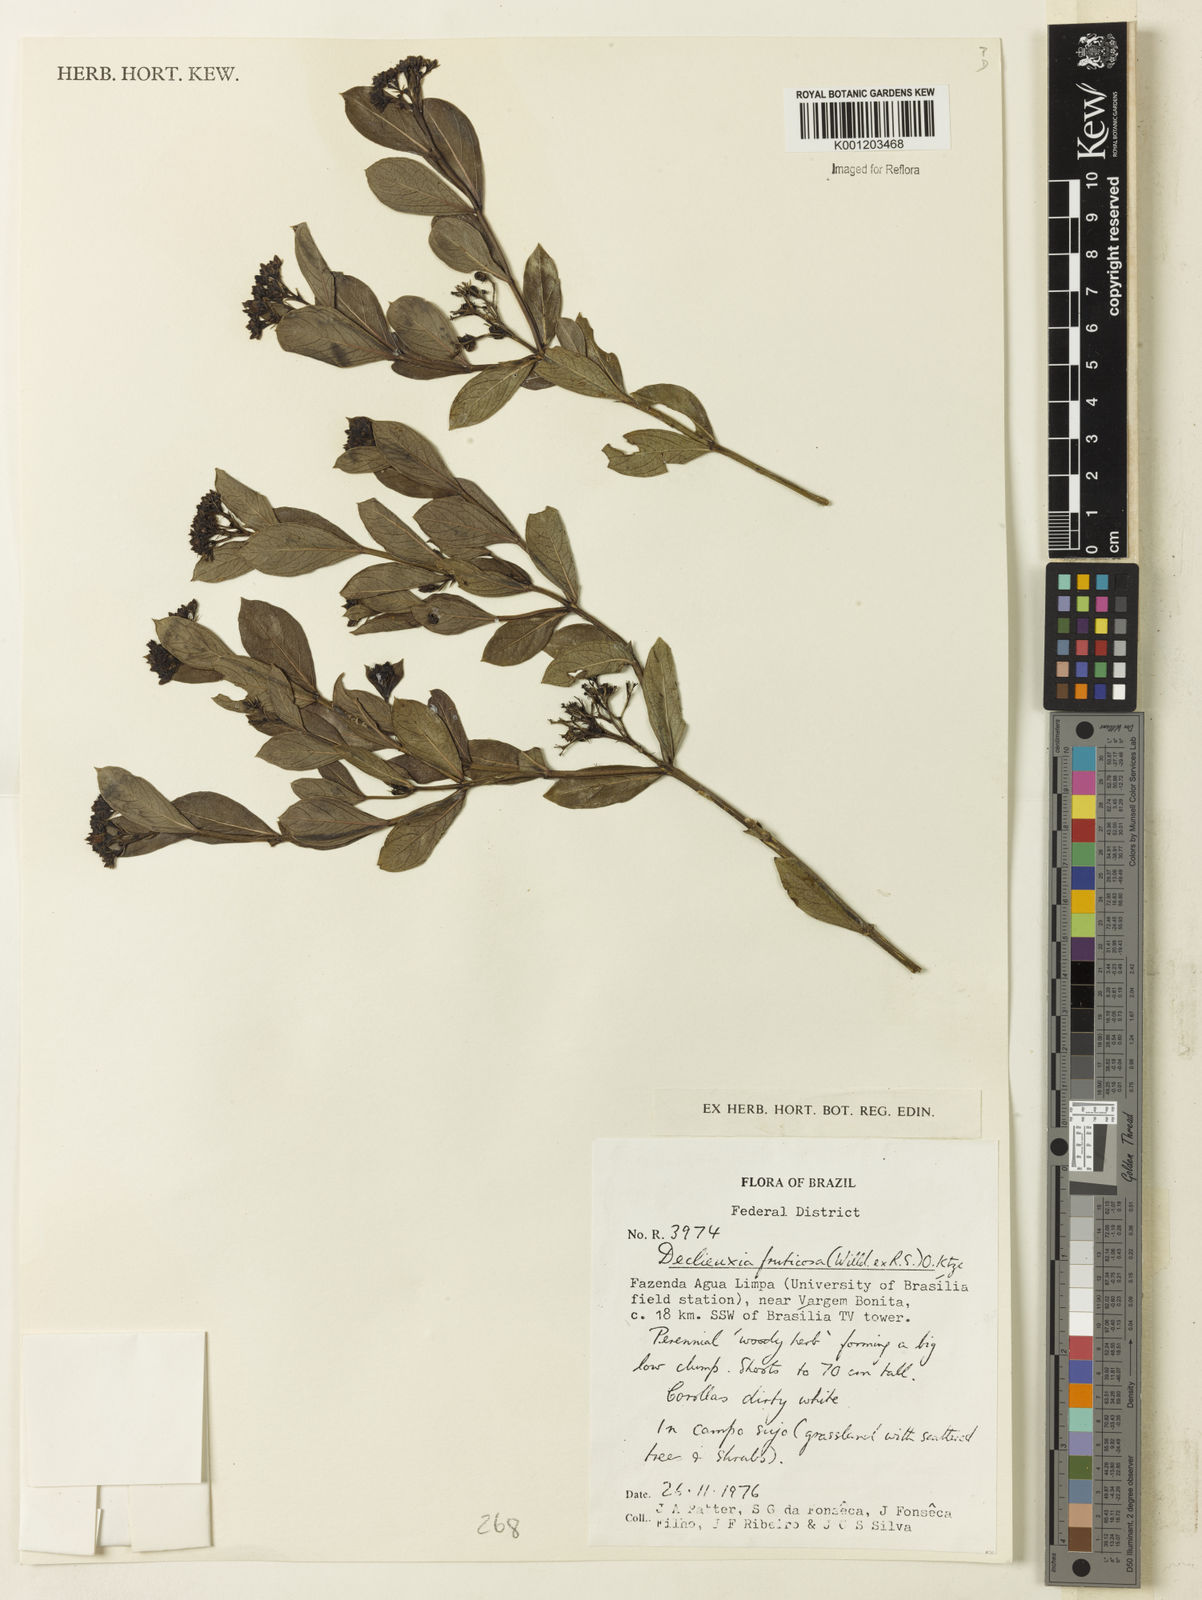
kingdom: Plantae
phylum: Tracheophyta
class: Magnoliopsida
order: Gentianales
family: Rubiaceae
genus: Declieuxia
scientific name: Declieuxia fruticosa
